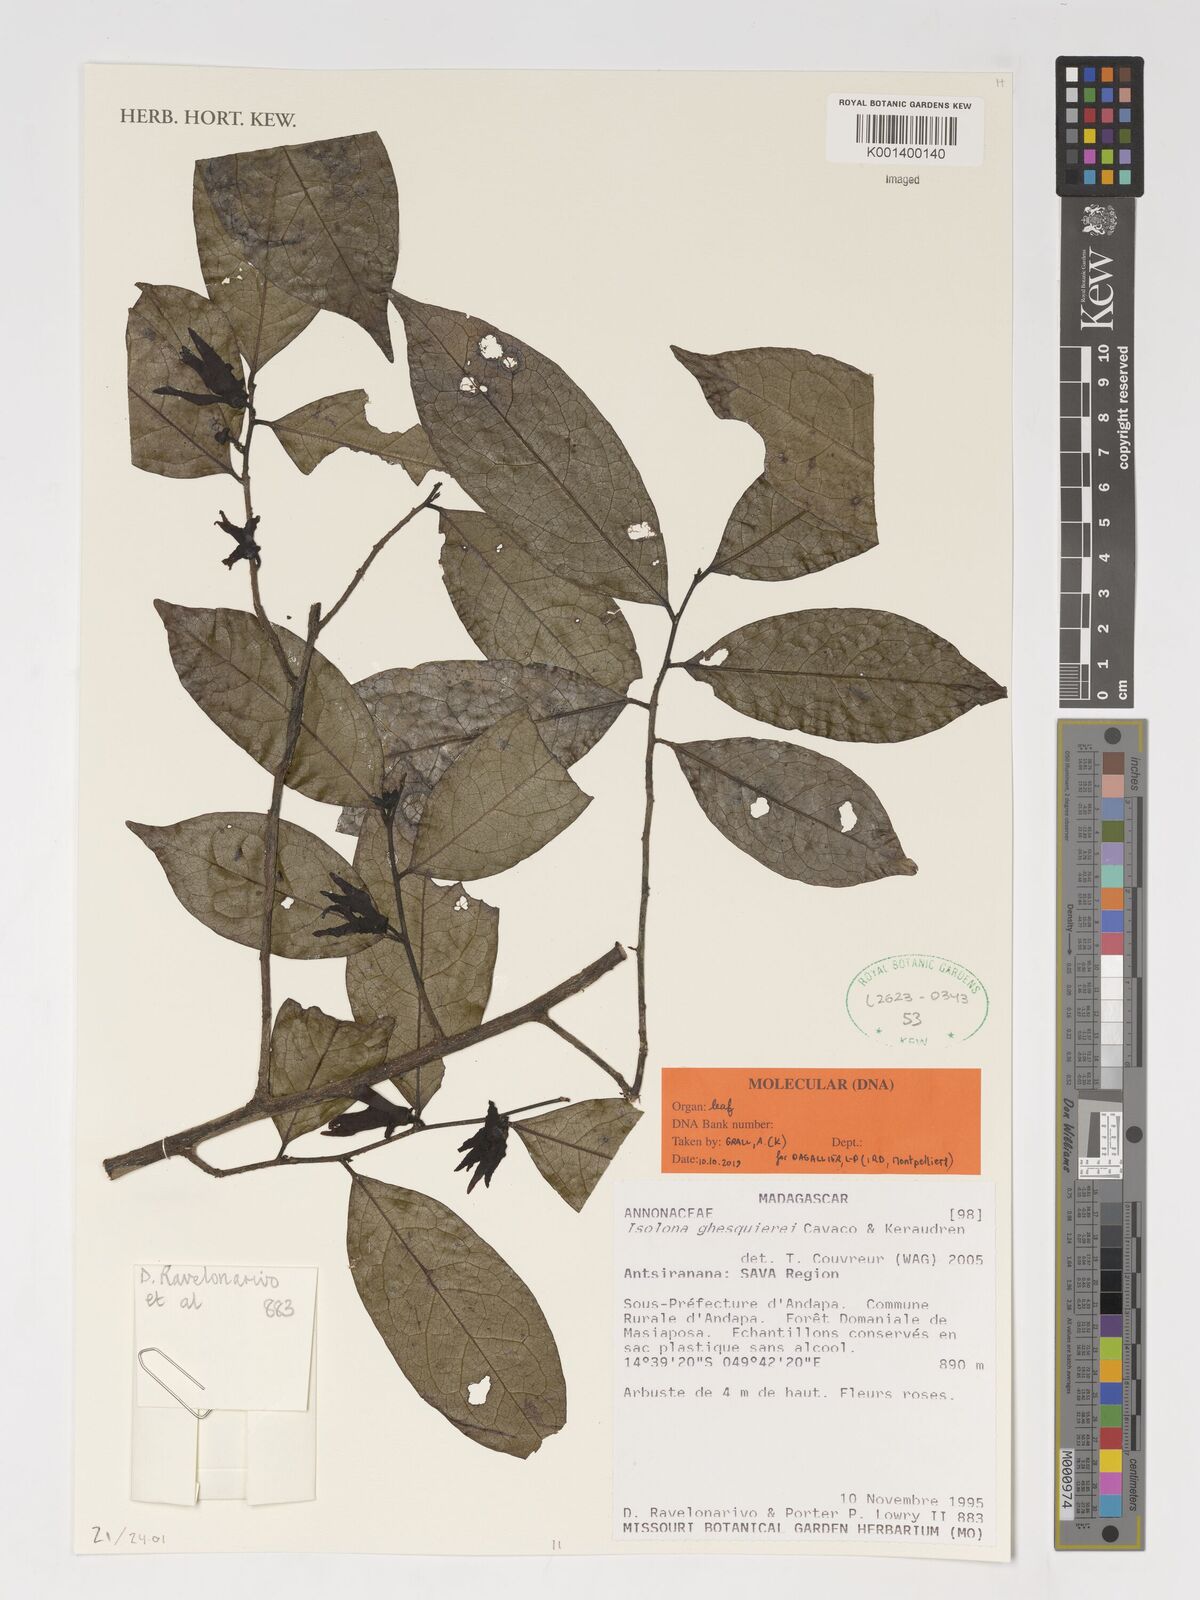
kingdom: Plantae
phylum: Tracheophyta
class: Magnoliopsida
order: Magnoliales
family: Annonaceae
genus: Isolona
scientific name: Isolona ghesquierei
